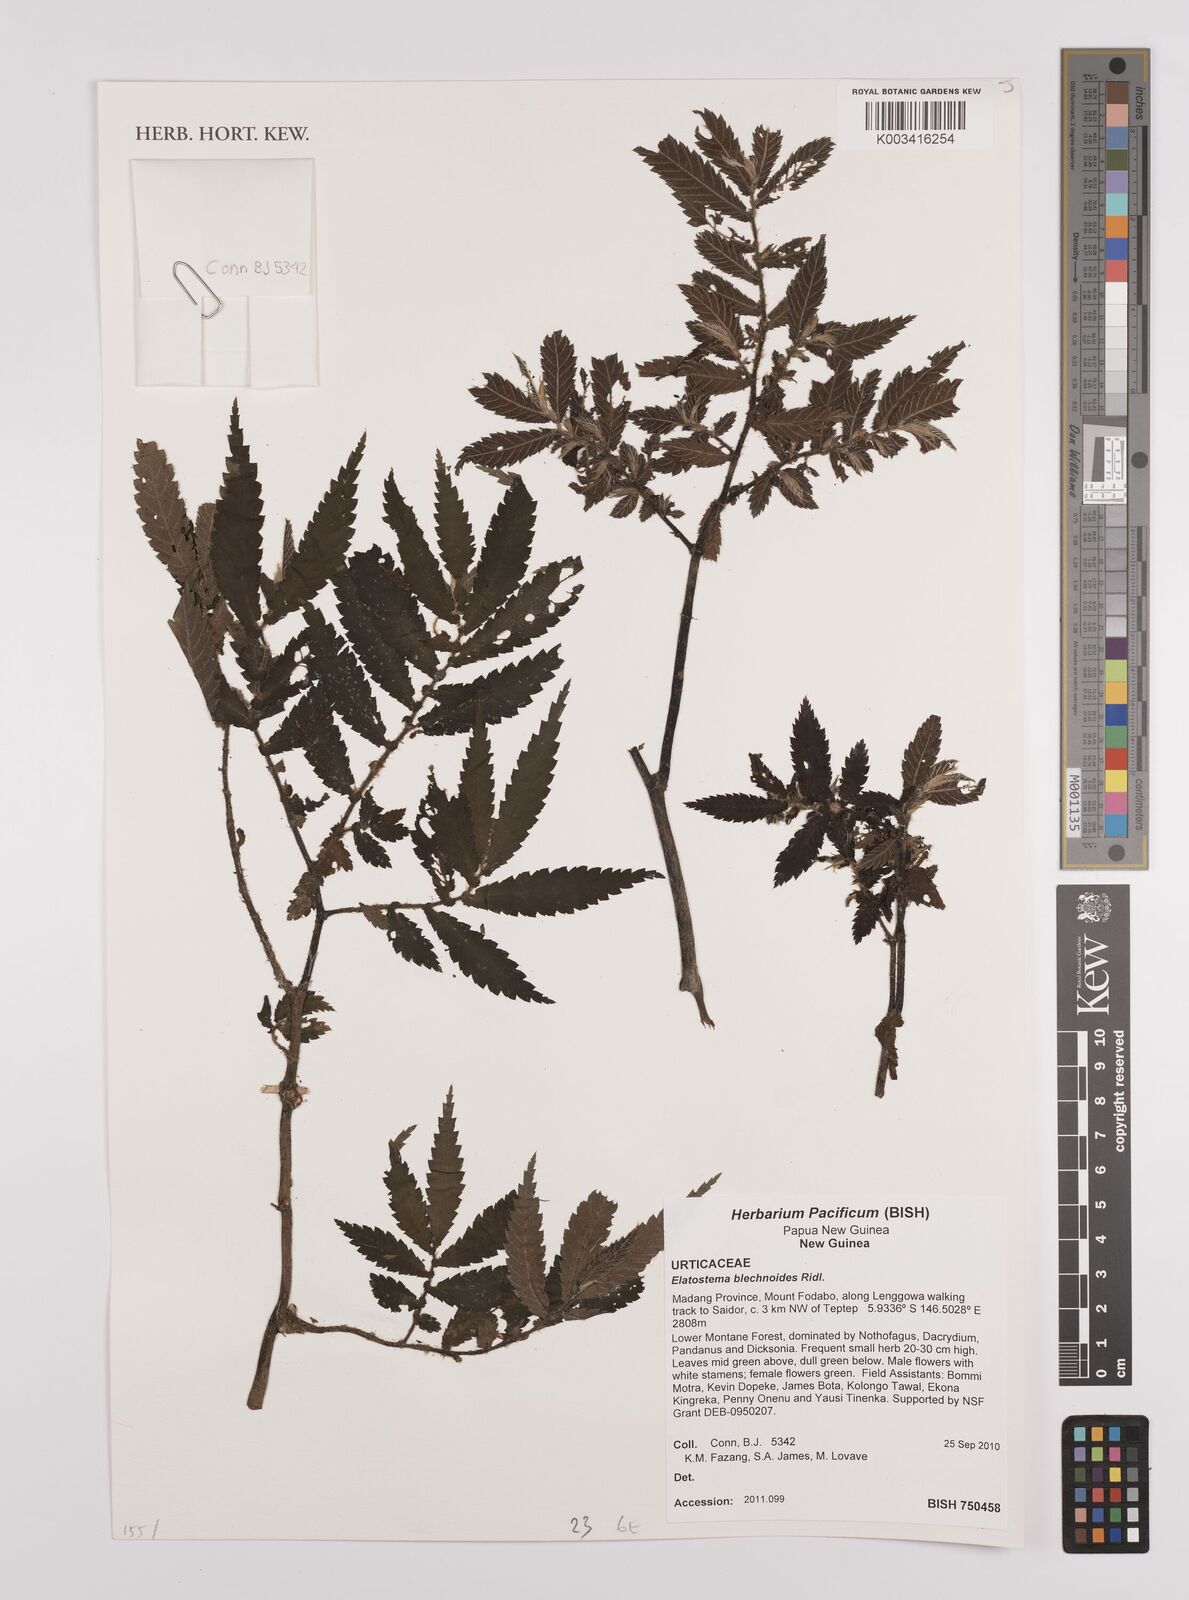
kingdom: Plantae
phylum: Tracheophyta
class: Magnoliopsida
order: Rosales
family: Urticaceae
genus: Elatostema
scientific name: Elatostema blechnoides
